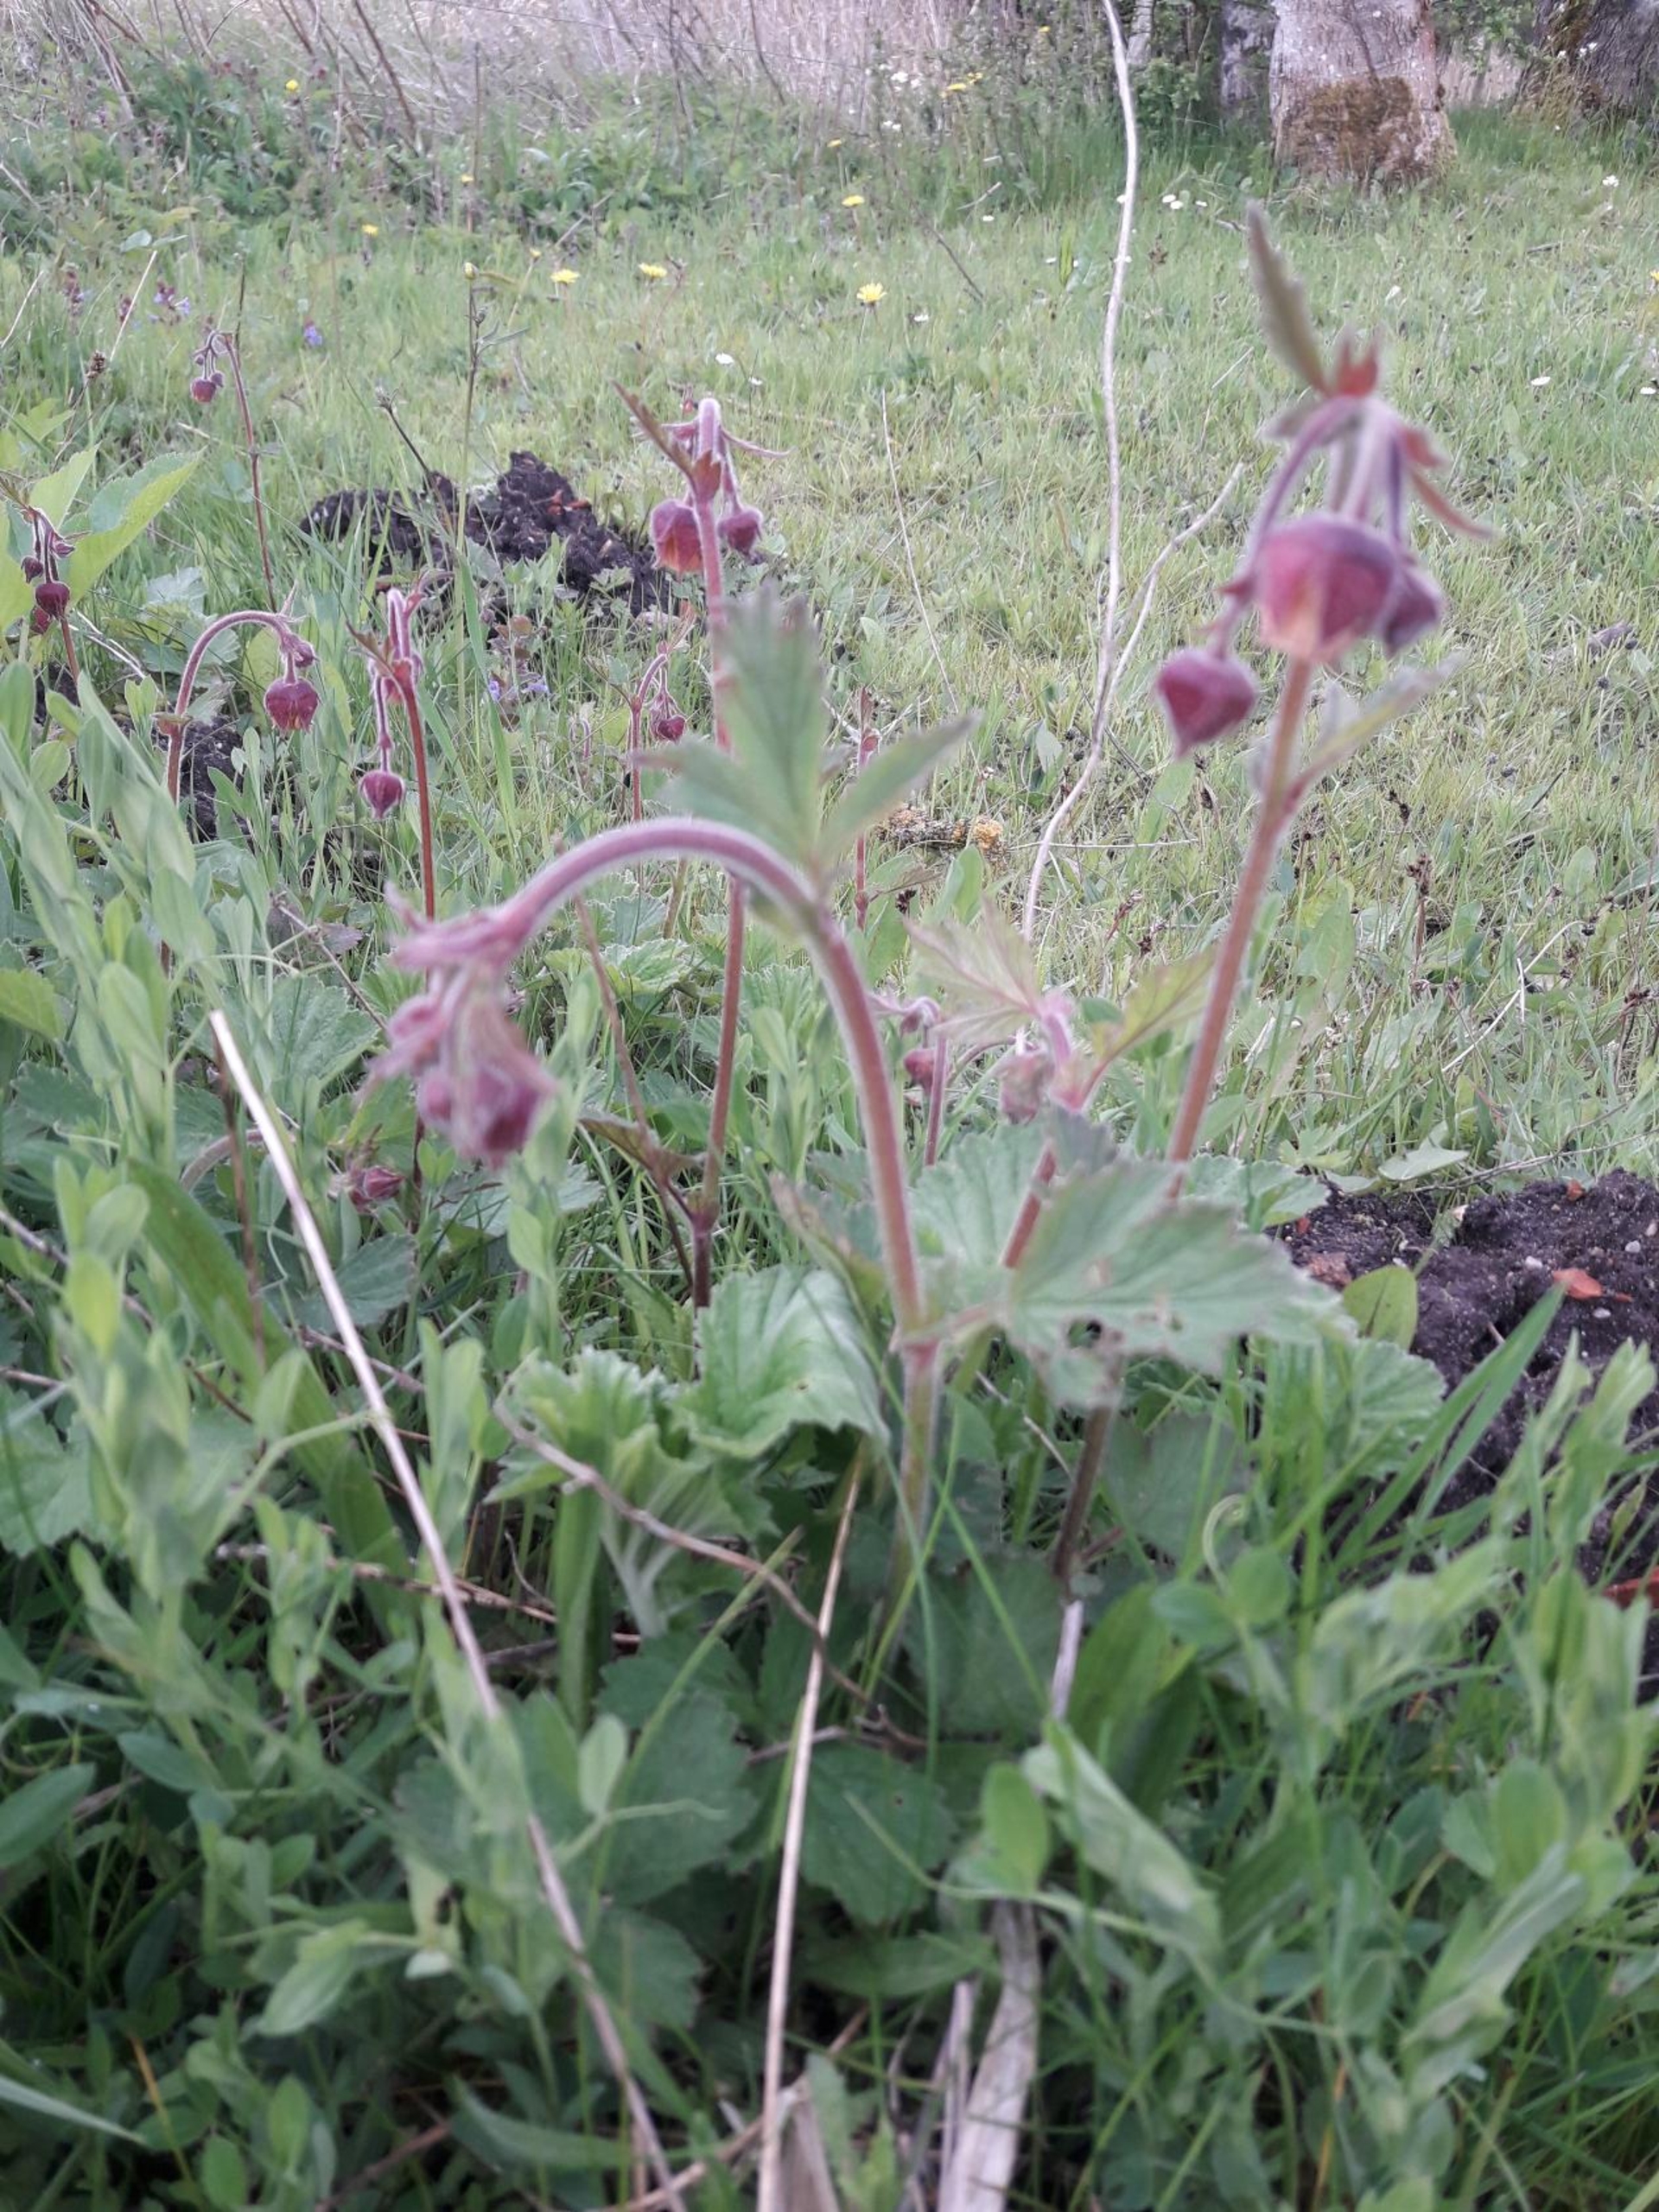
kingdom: Plantae
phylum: Tracheophyta
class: Magnoliopsida
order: Rosales
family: Rosaceae
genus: Geum
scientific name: Geum rivale
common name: Eng-nellikerod
